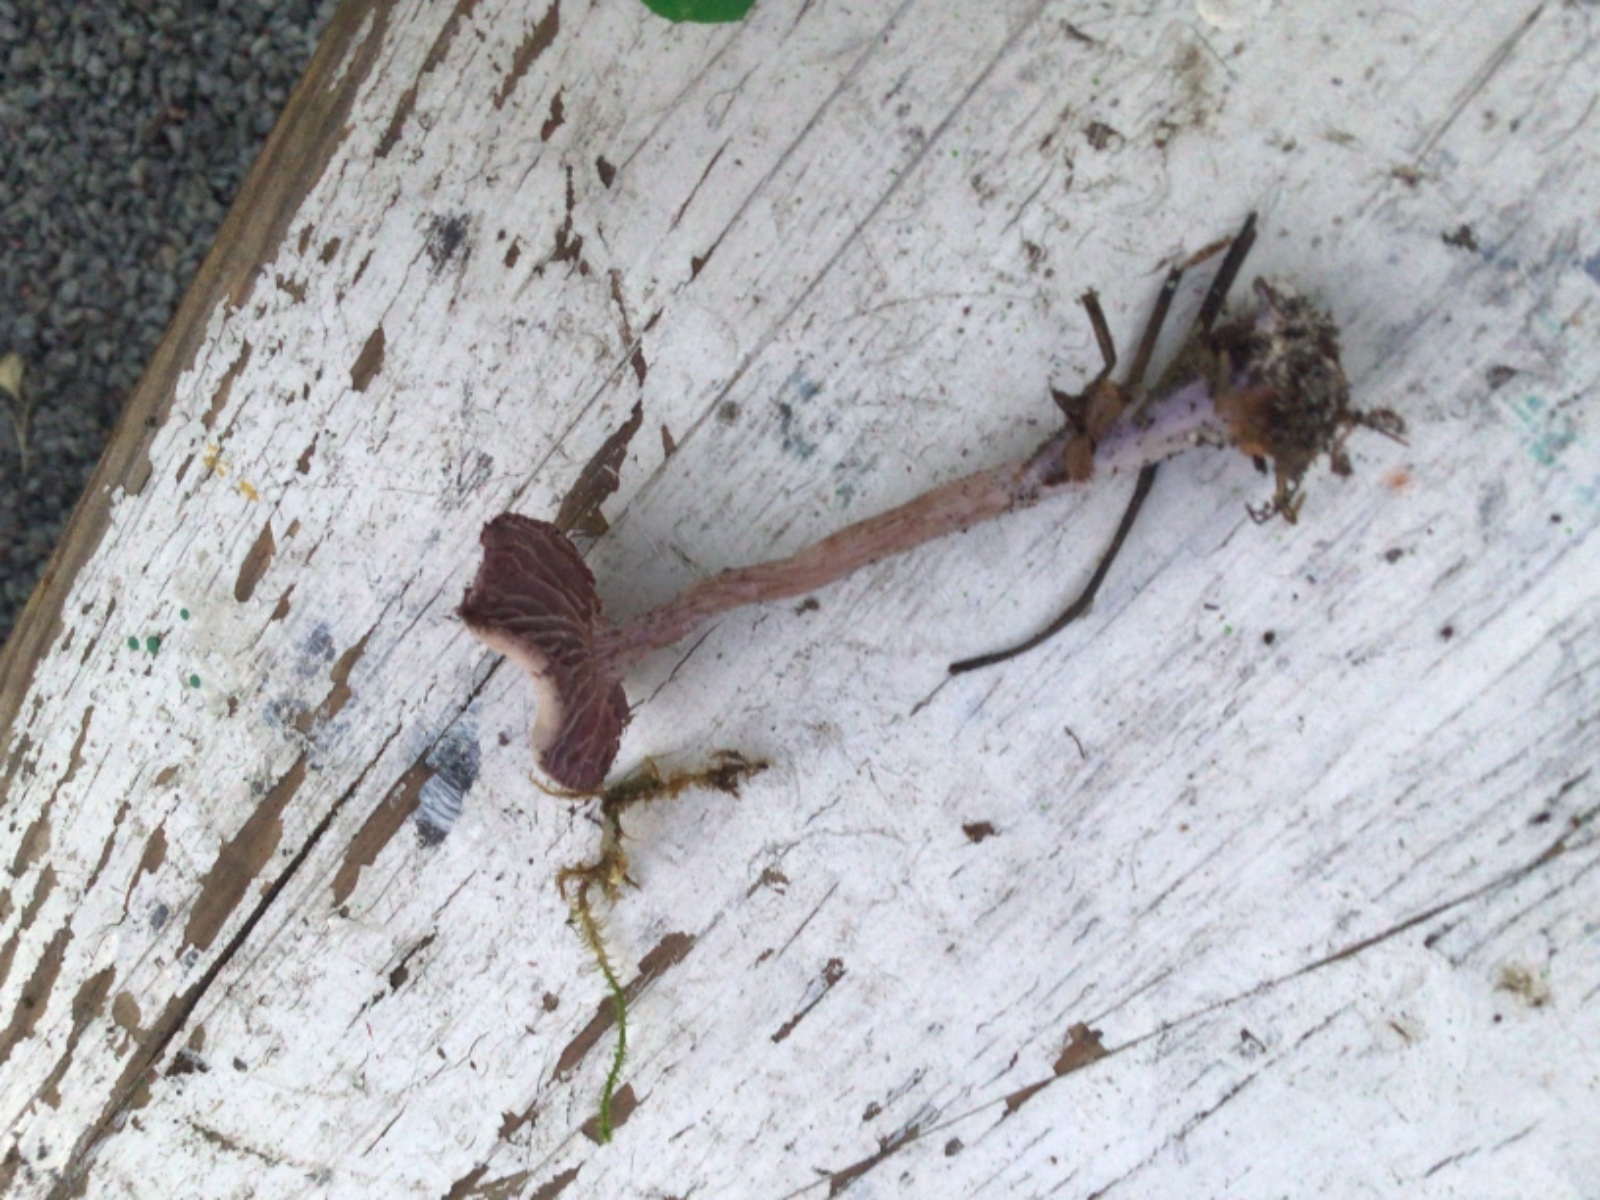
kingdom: Fungi
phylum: Basidiomycota
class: Agaricomycetes
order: Agaricales
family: Hydnangiaceae
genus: Laccaria
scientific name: Laccaria amethystina
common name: violet ametysthat
